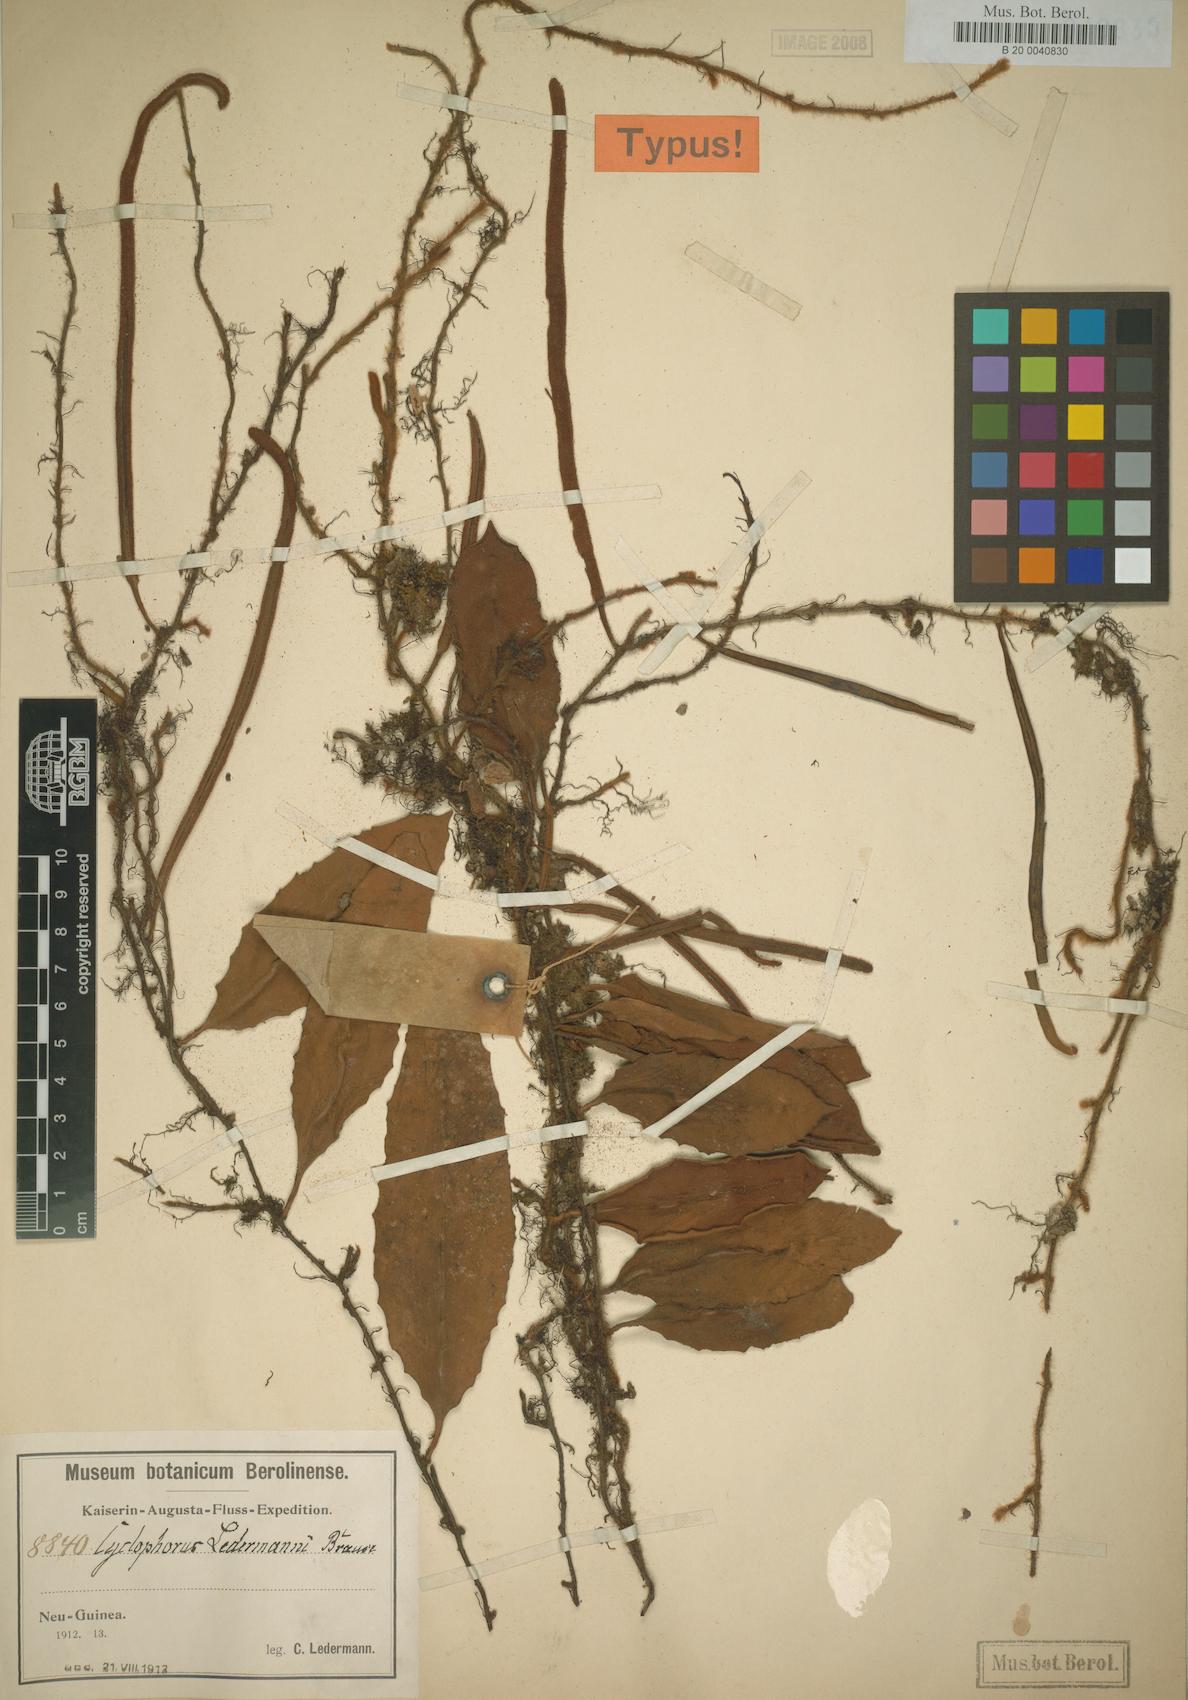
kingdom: Plantae
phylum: Tracheophyta
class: Polypodiopsida
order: Polypodiales
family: Polypodiaceae
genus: Pyrrosia
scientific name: Pyrrosia novoguineae
